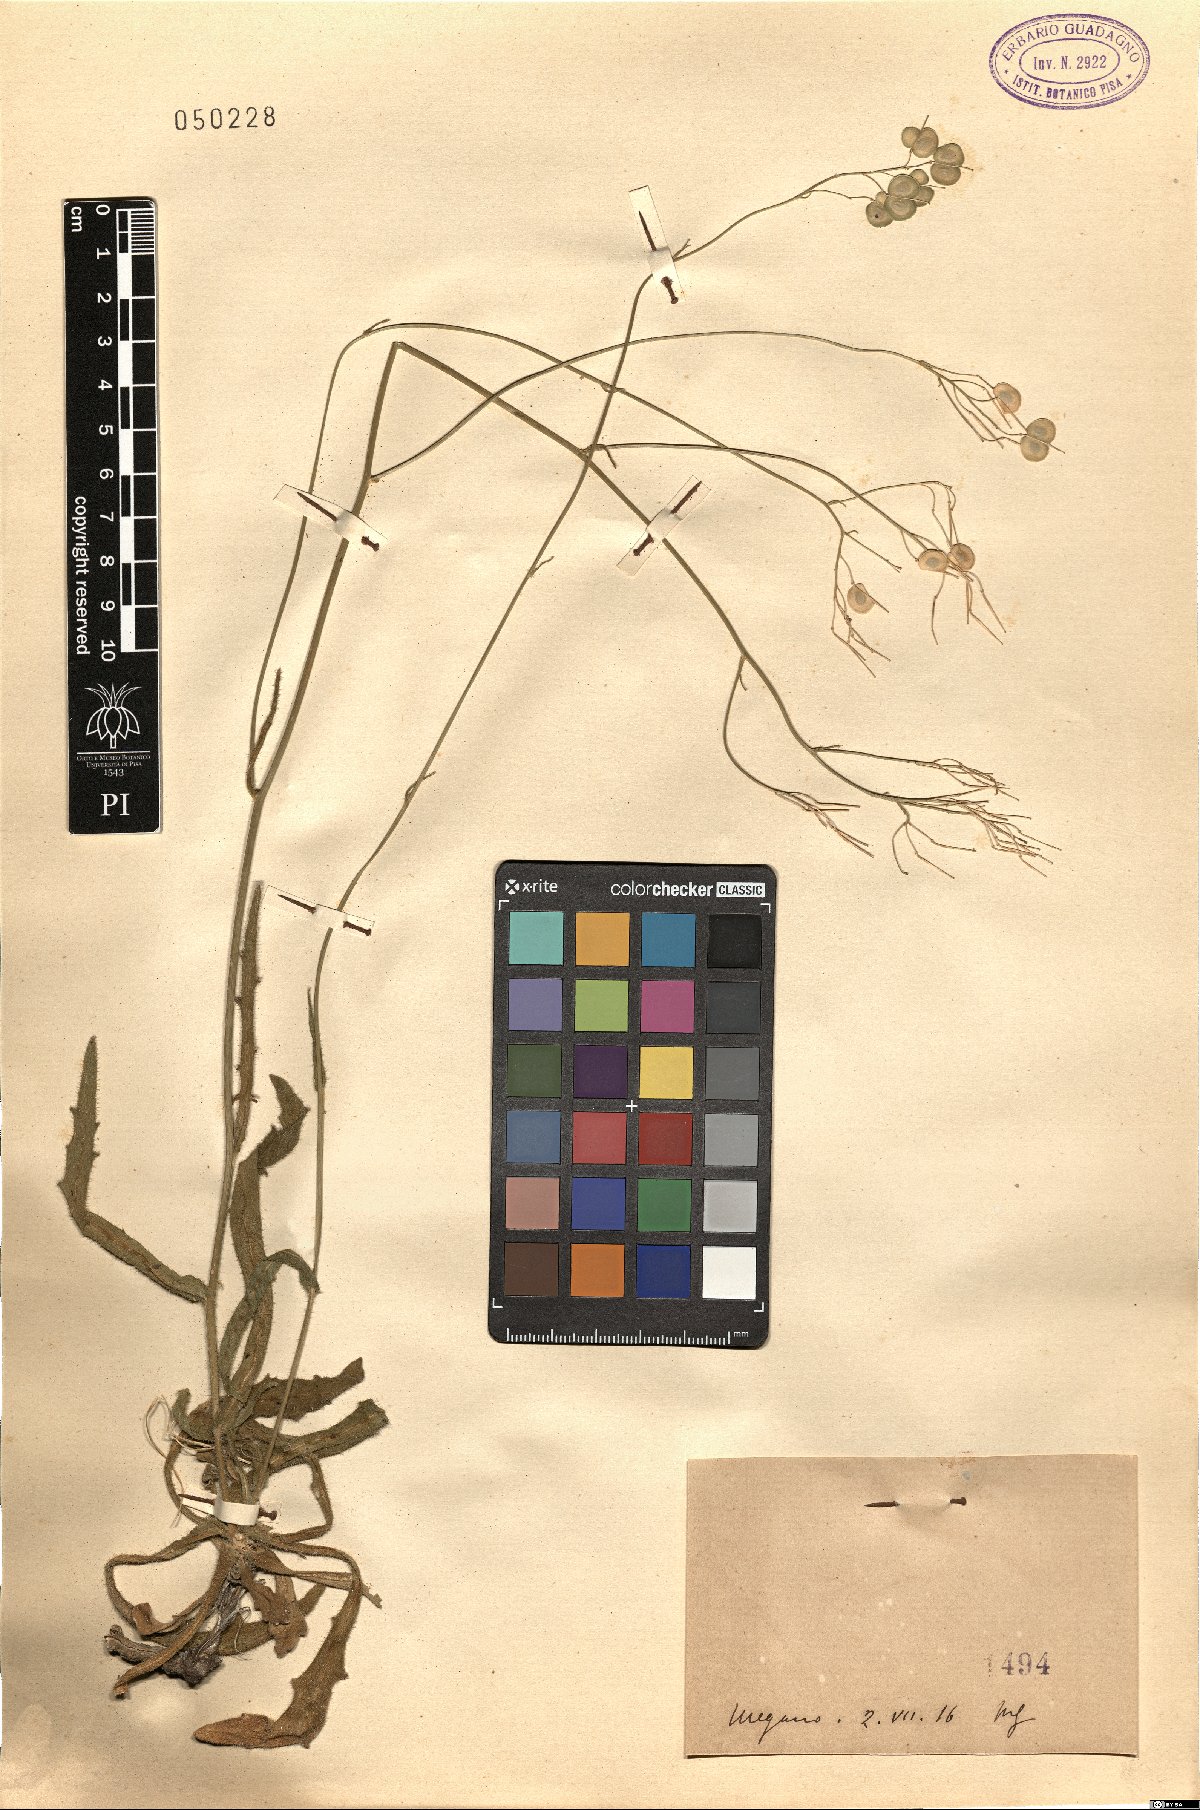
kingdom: Plantae
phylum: Tracheophyta
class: Magnoliopsida
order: Brassicales
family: Brassicaceae
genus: Biscutella
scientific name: Biscutella
